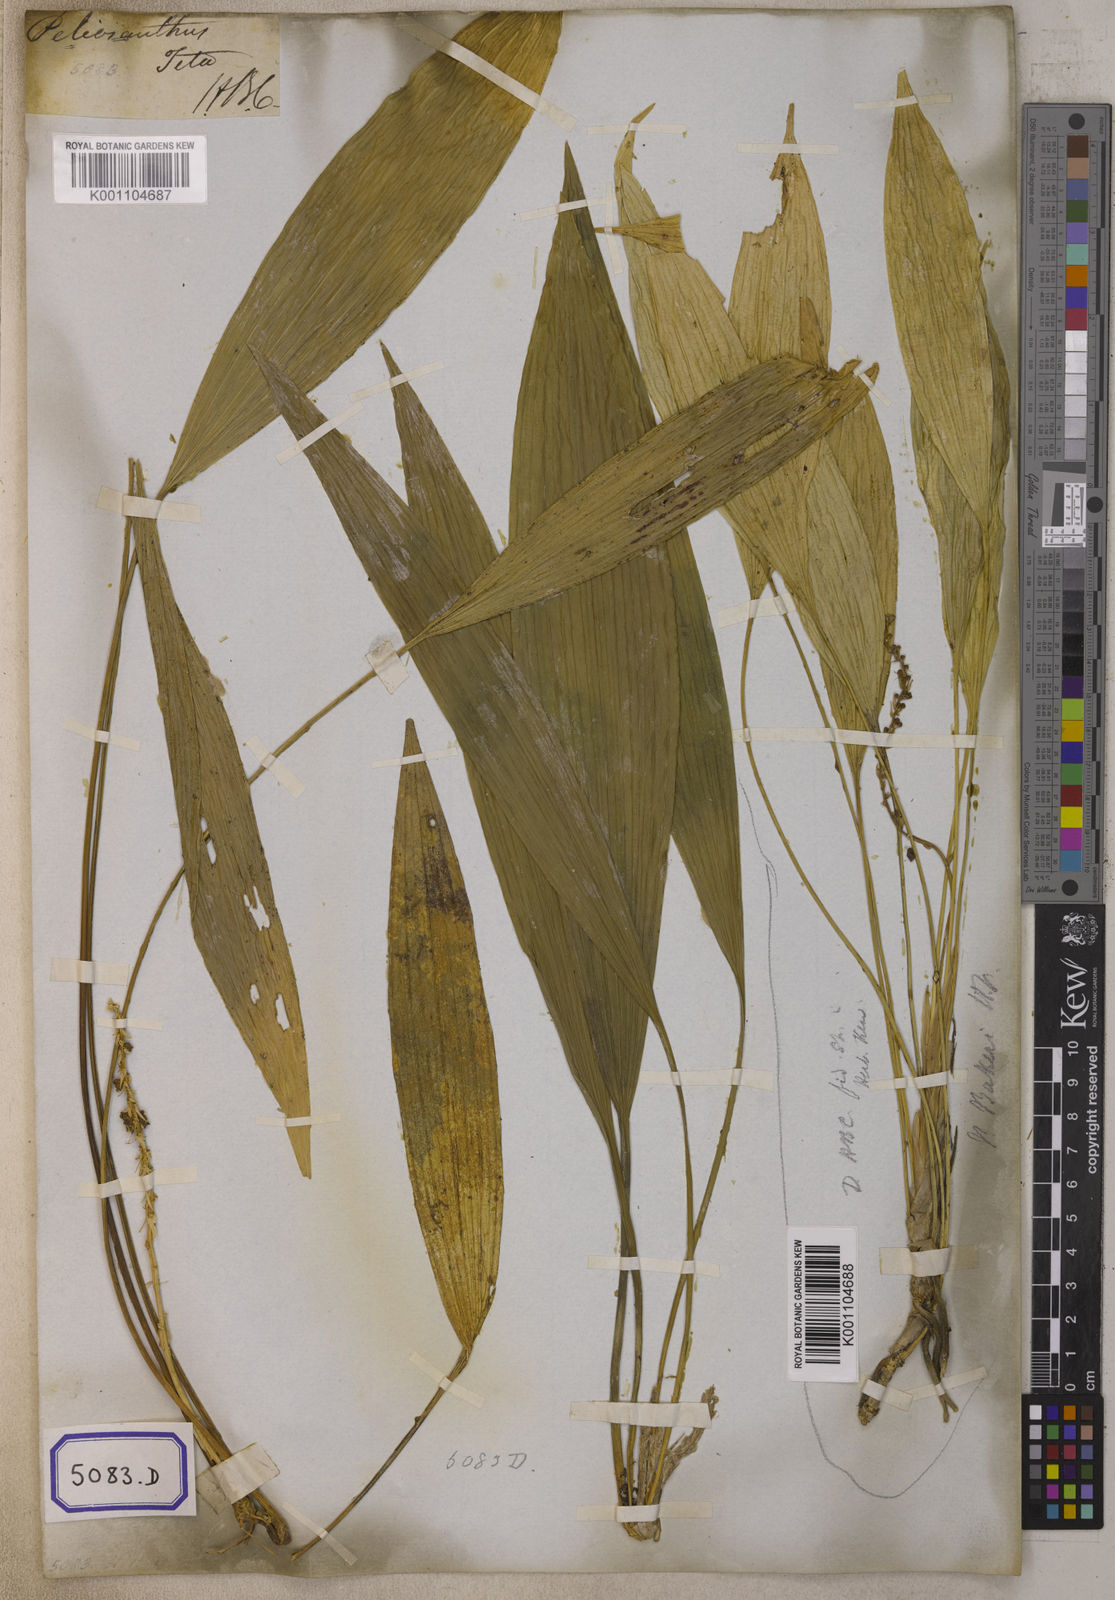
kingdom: Plantae
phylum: Tracheophyta
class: Liliopsida
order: Asparagales
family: Asparagaceae
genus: Peliosanthes
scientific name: Peliosanthes
